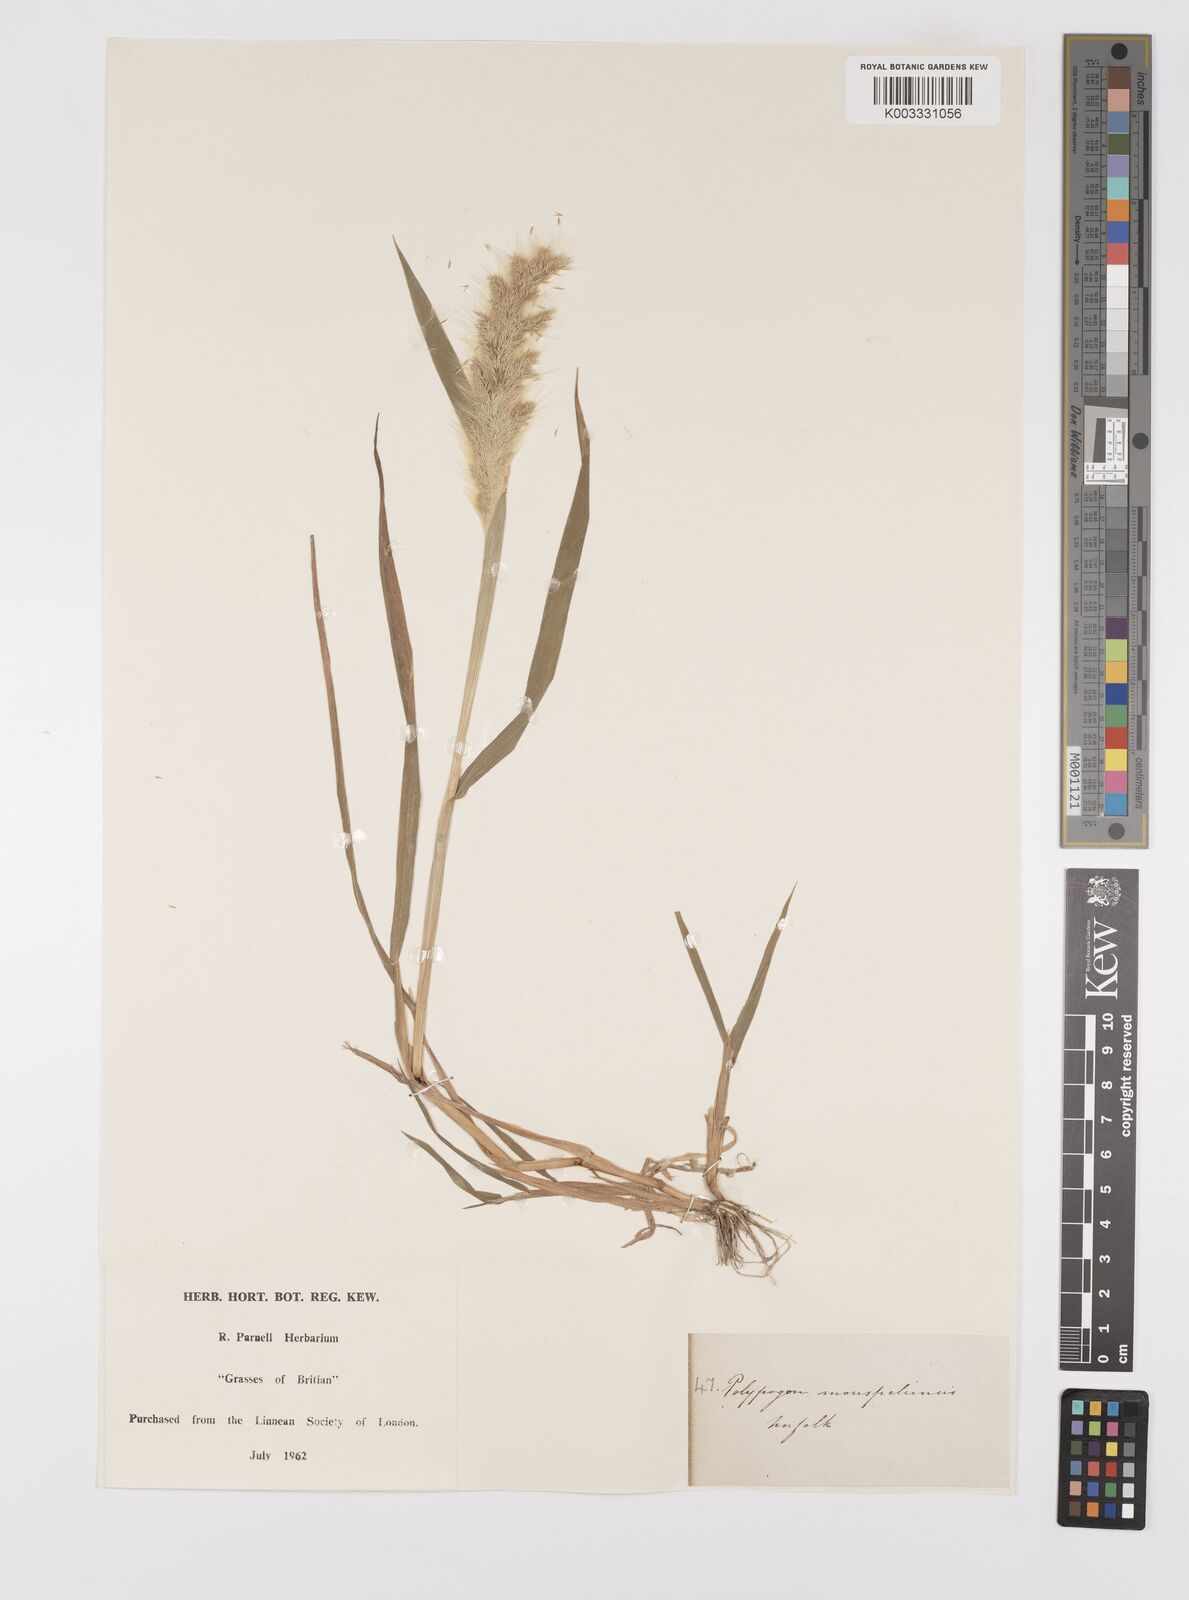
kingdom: Plantae
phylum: Tracheophyta
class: Liliopsida
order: Poales
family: Poaceae
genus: Polypogon
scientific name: Polypogon monspeliensis
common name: Annual rabbitsfoot grass
